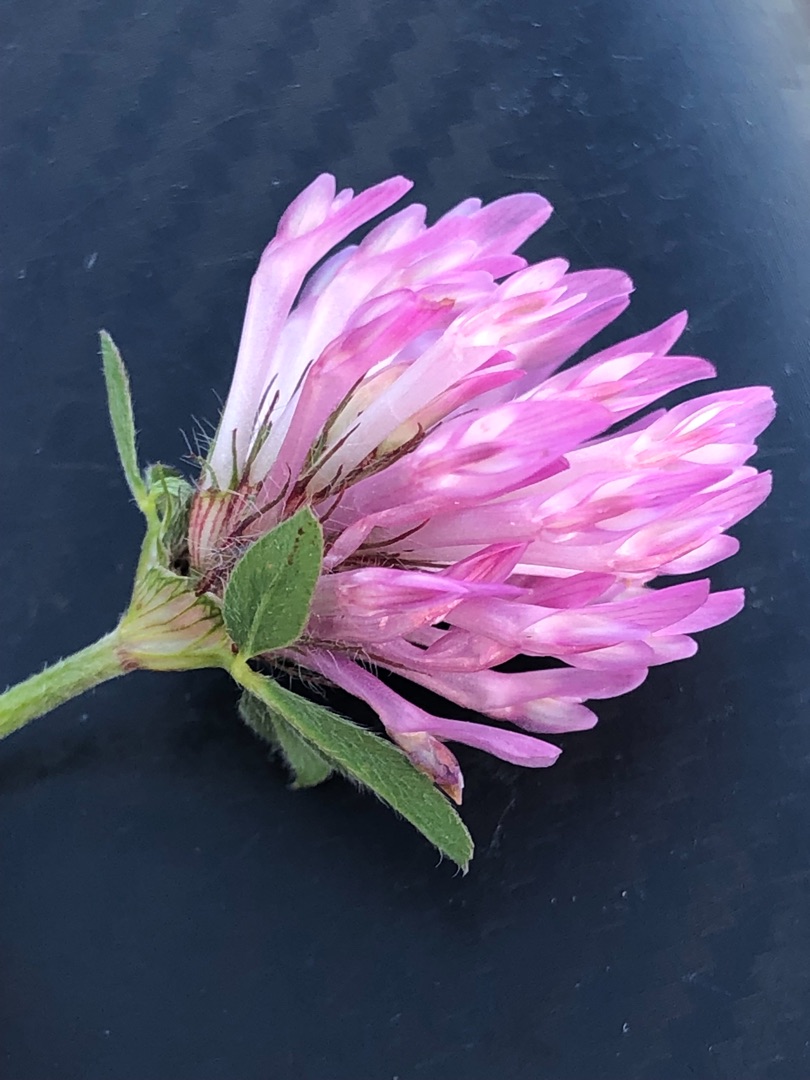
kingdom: Plantae
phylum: Tracheophyta
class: Magnoliopsida
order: Fabales
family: Fabaceae
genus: Trifolium
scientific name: Trifolium pratense
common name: Rød-kløver
